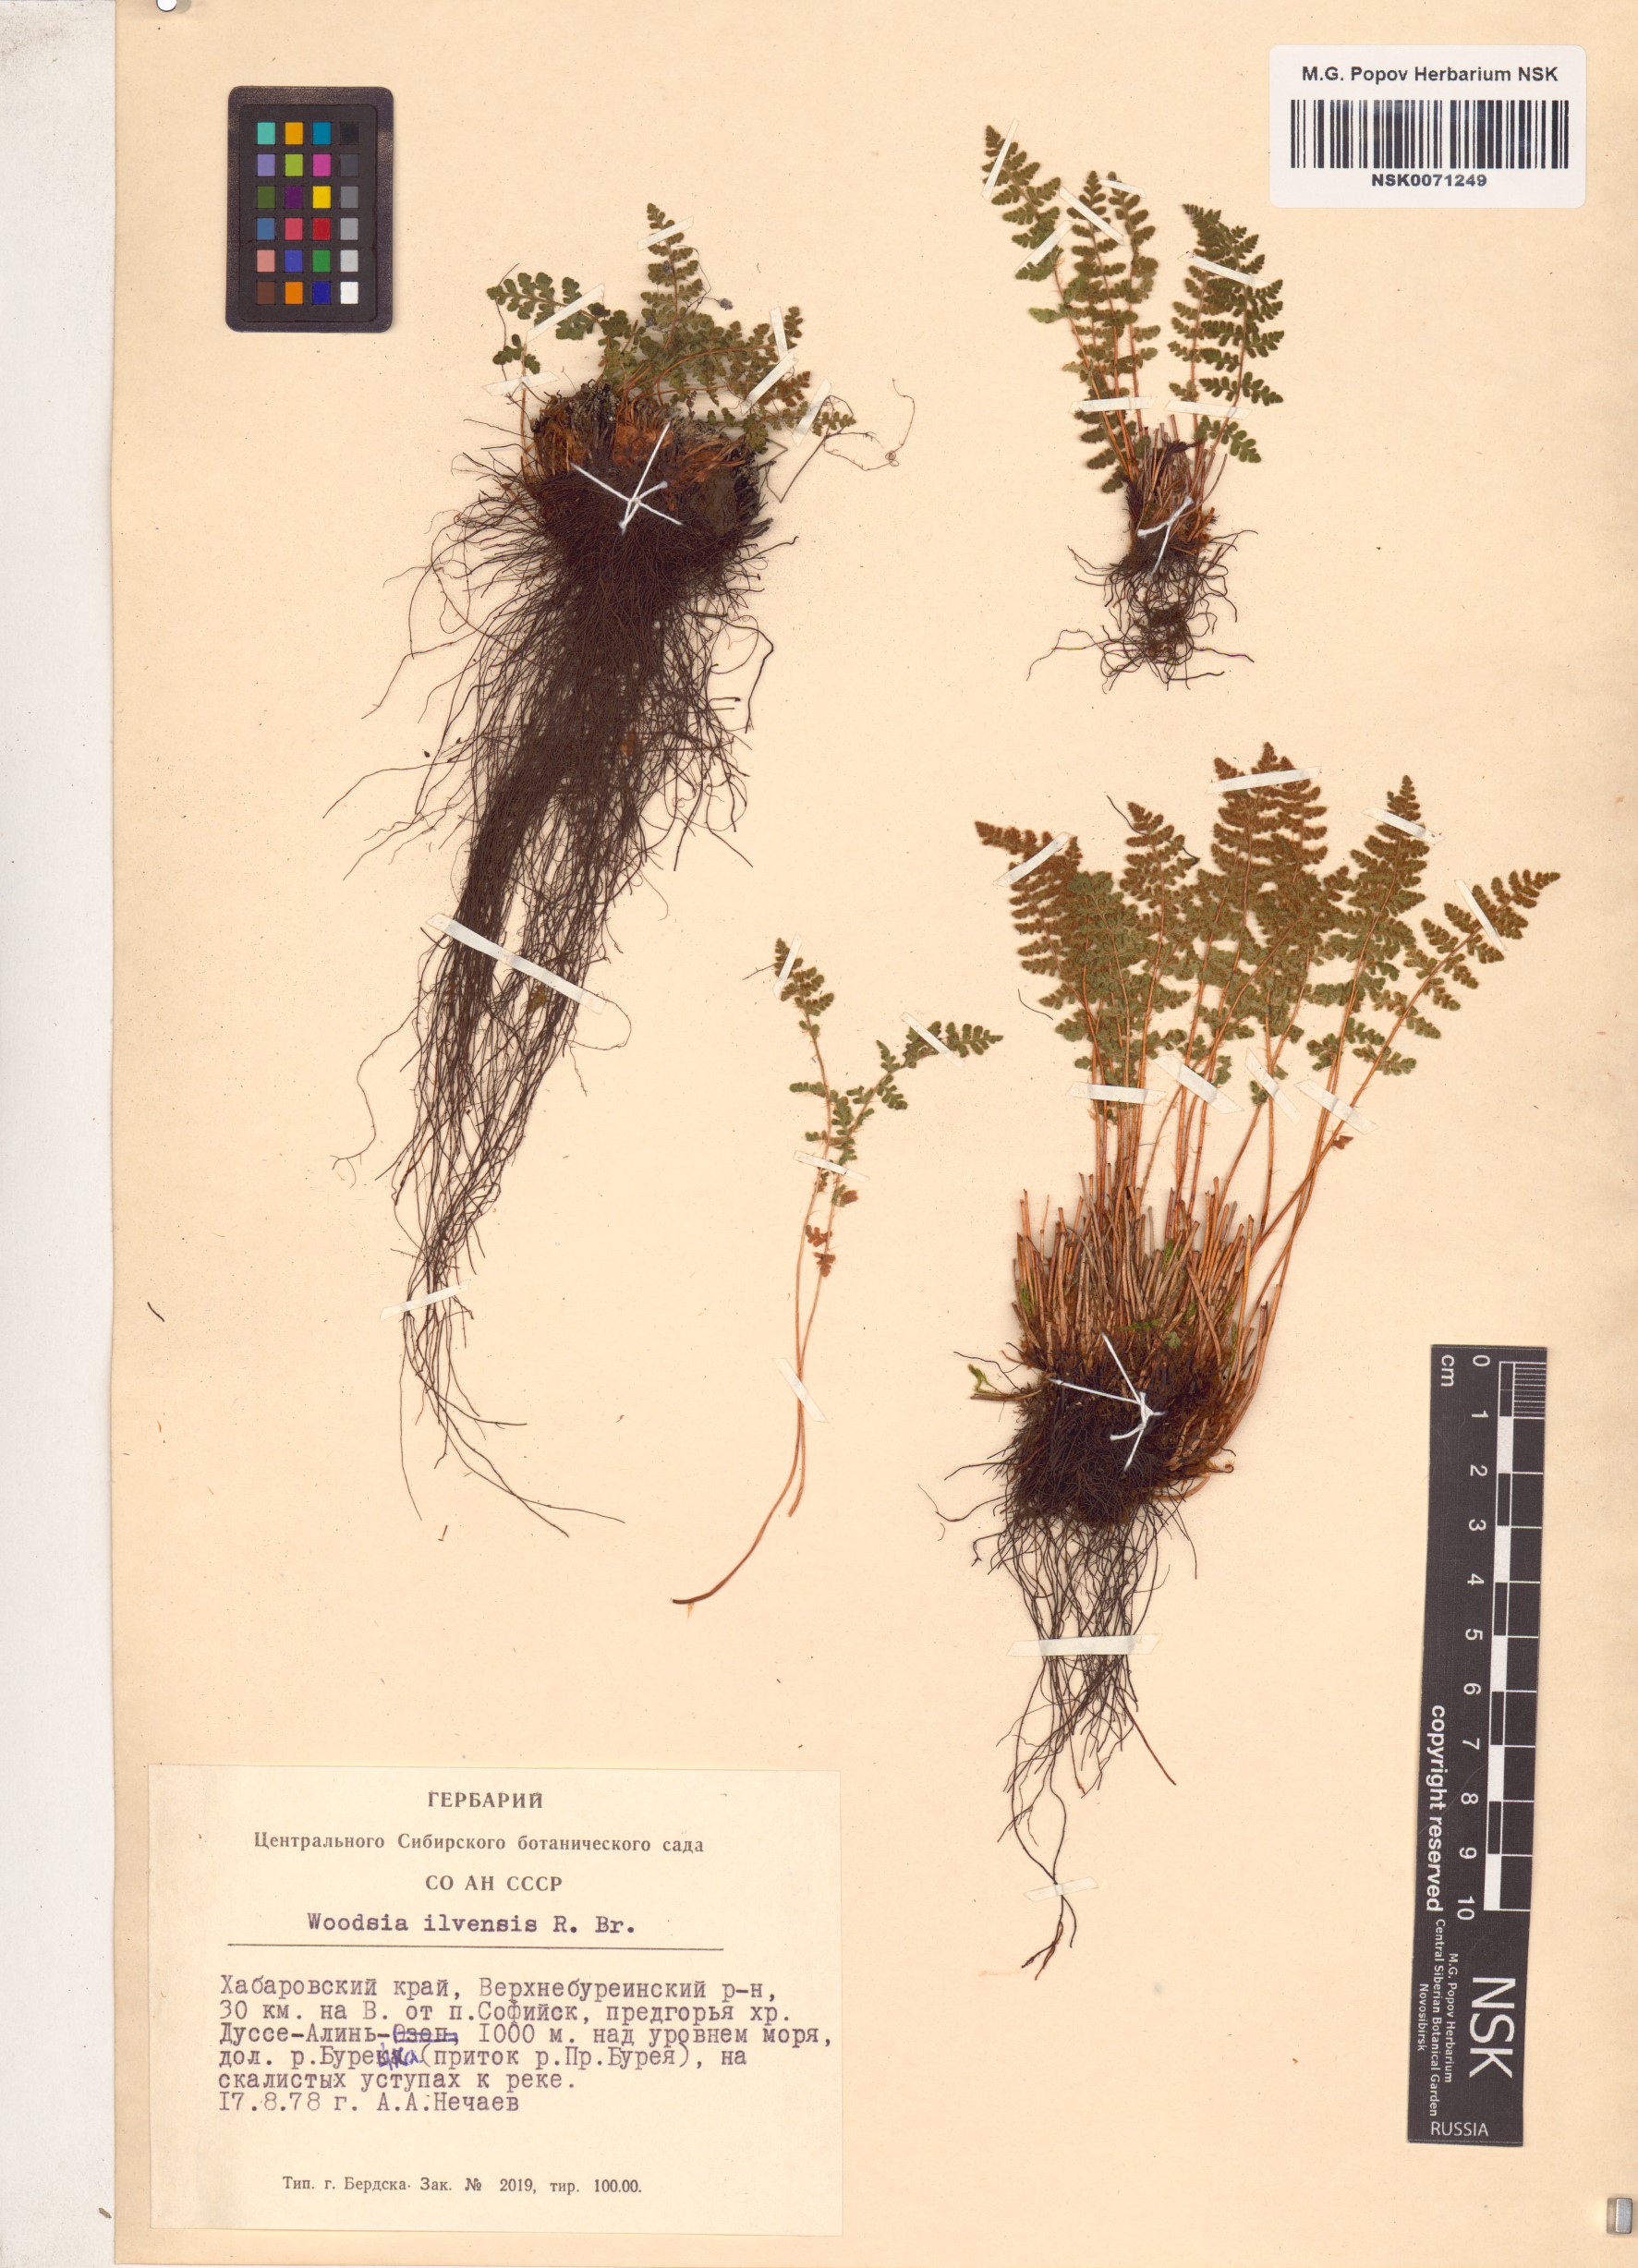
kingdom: Plantae
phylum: Tracheophyta
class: Polypodiopsida
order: Polypodiales
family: Woodsiaceae
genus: Woodsia
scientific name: Woodsia ilvensis
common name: Fragrant woodsia
